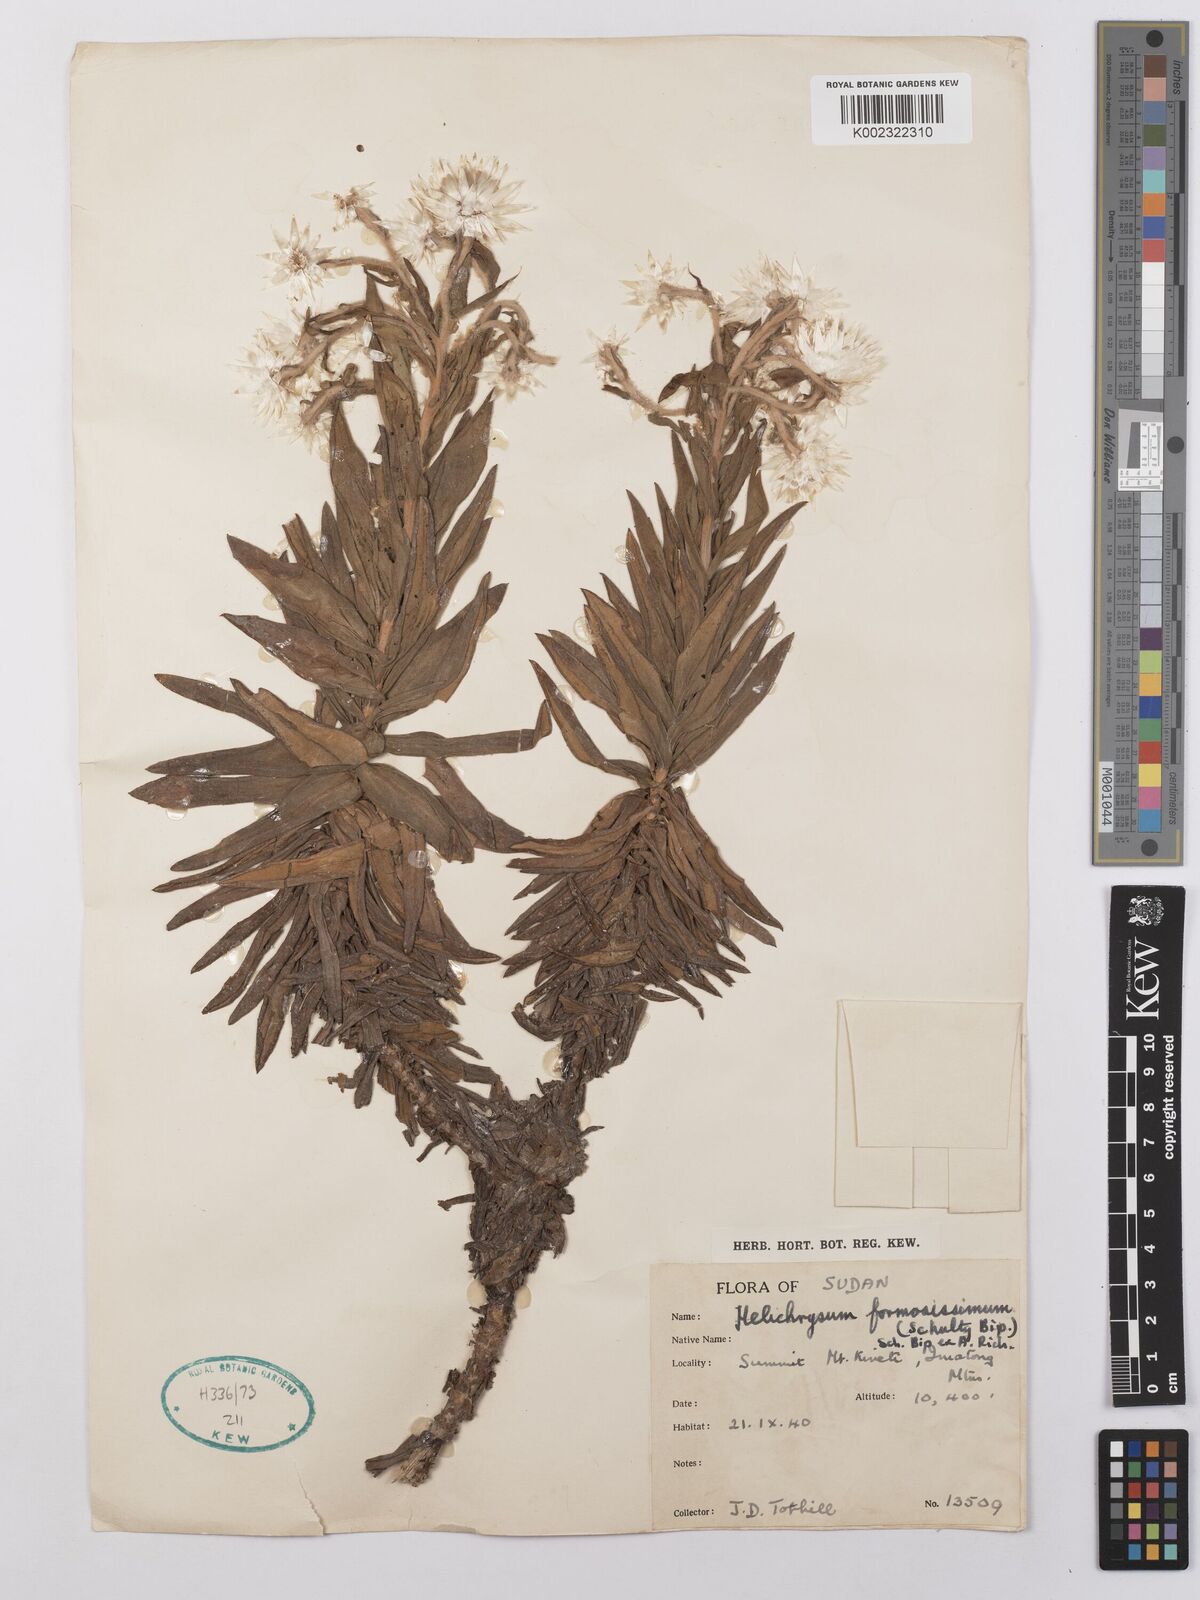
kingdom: Plantae
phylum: Tracheophyta
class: Magnoliopsida
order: Asterales
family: Asteraceae
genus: Helichrysum
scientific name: Helichrysum formosissimum
